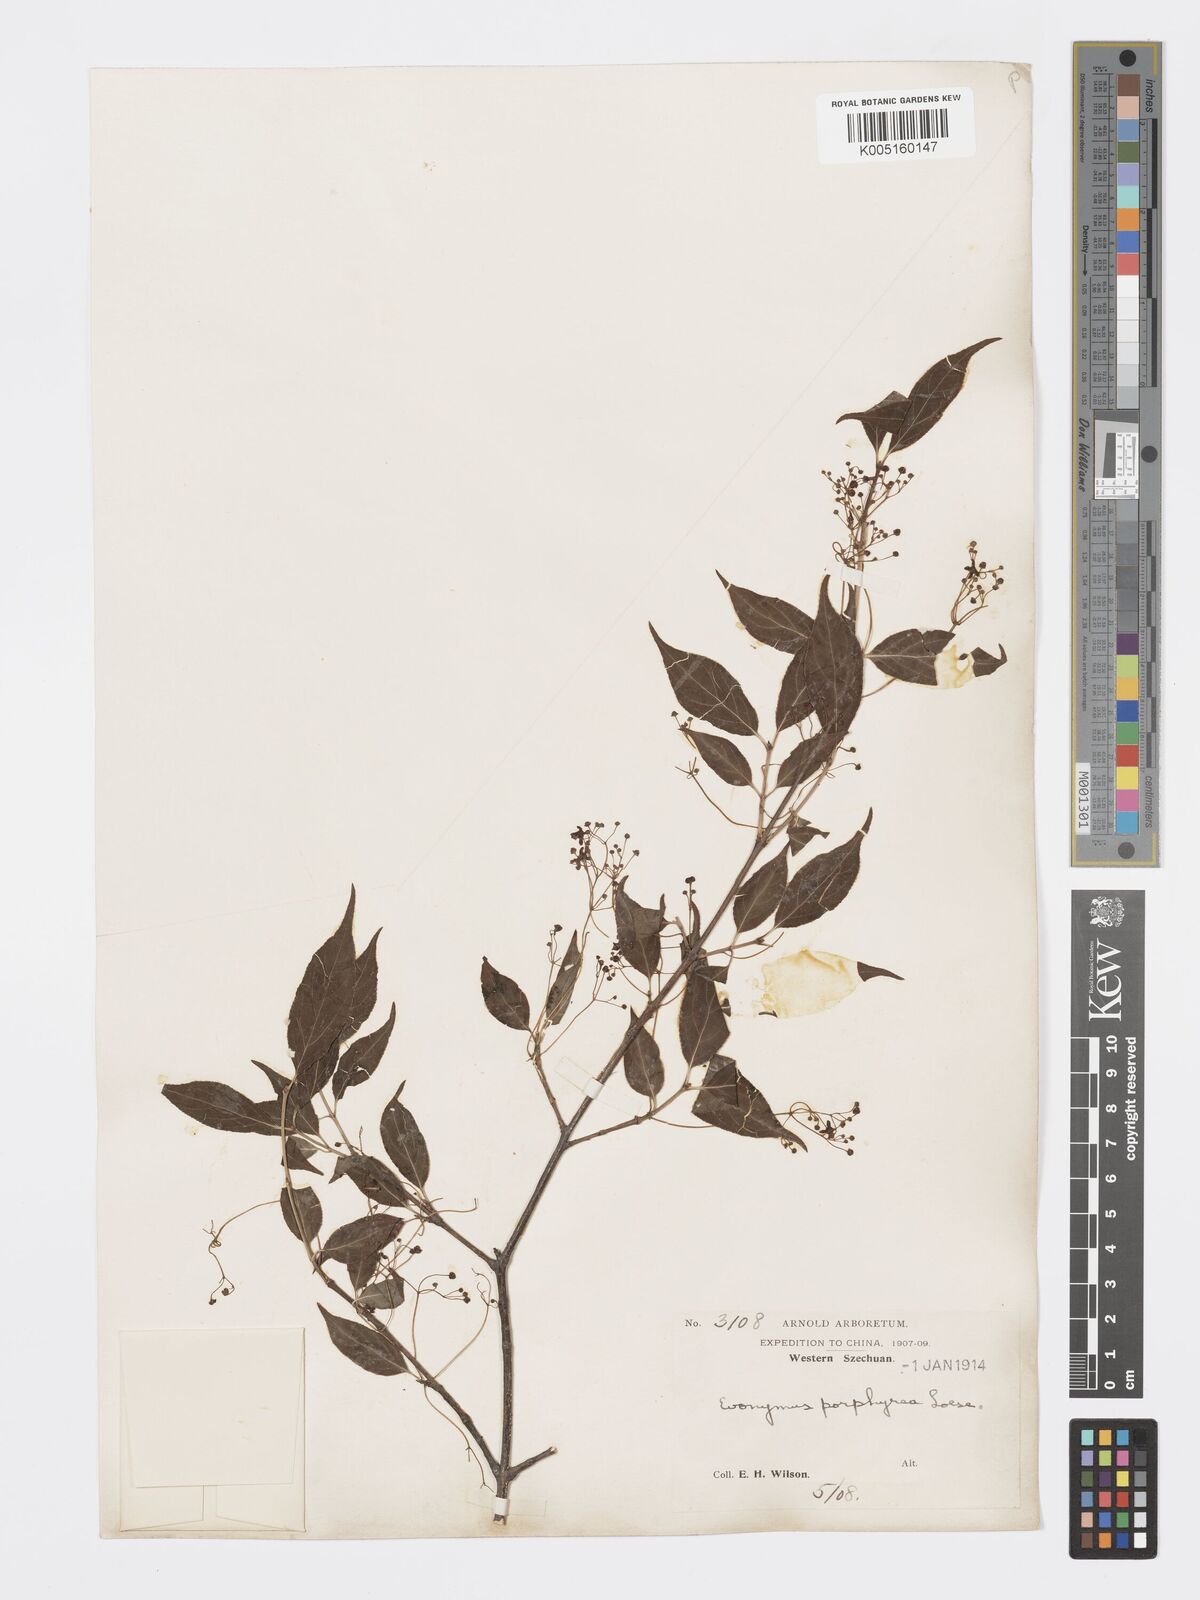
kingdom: Plantae
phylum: Tracheophyta
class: Magnoliopsida
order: Celastrales
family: Celastraceae
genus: Euonymus
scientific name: Euonymus frigidus
